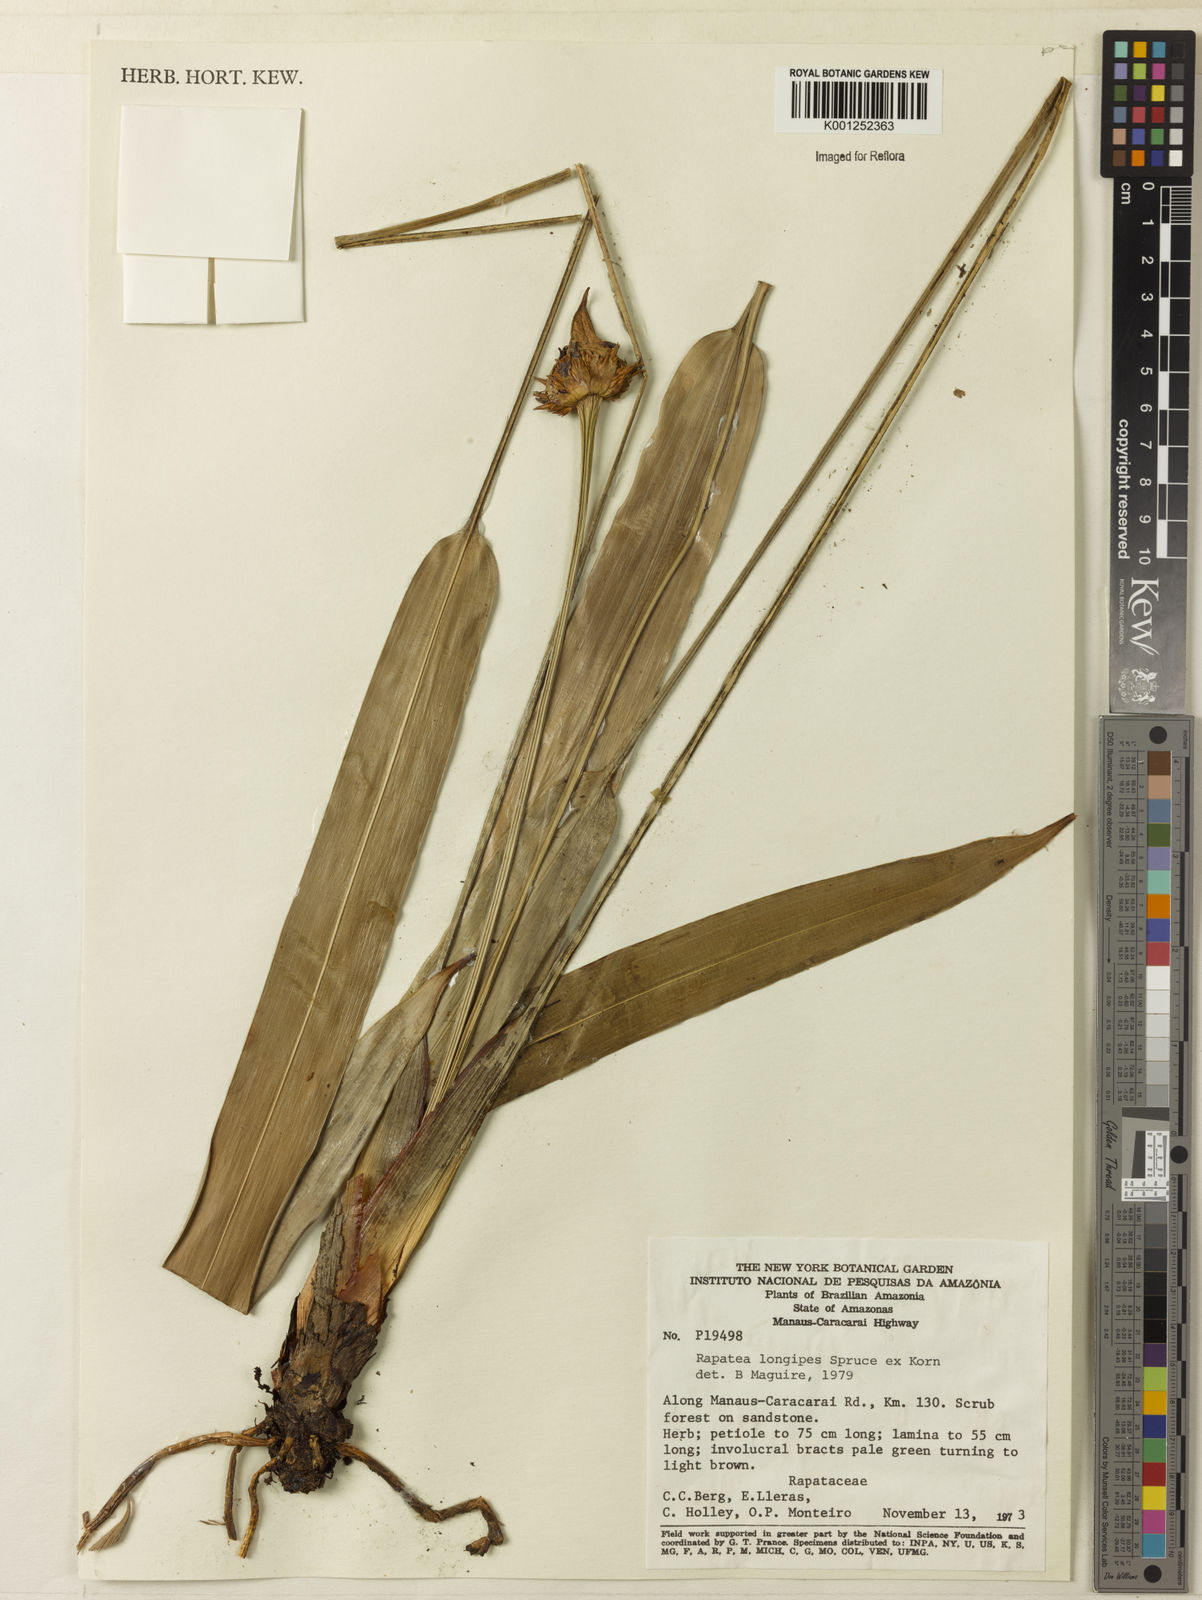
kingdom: Plantae
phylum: Tracheophyta
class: Liliopsida
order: Poales
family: Rapateaceae
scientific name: Rapateaceae
